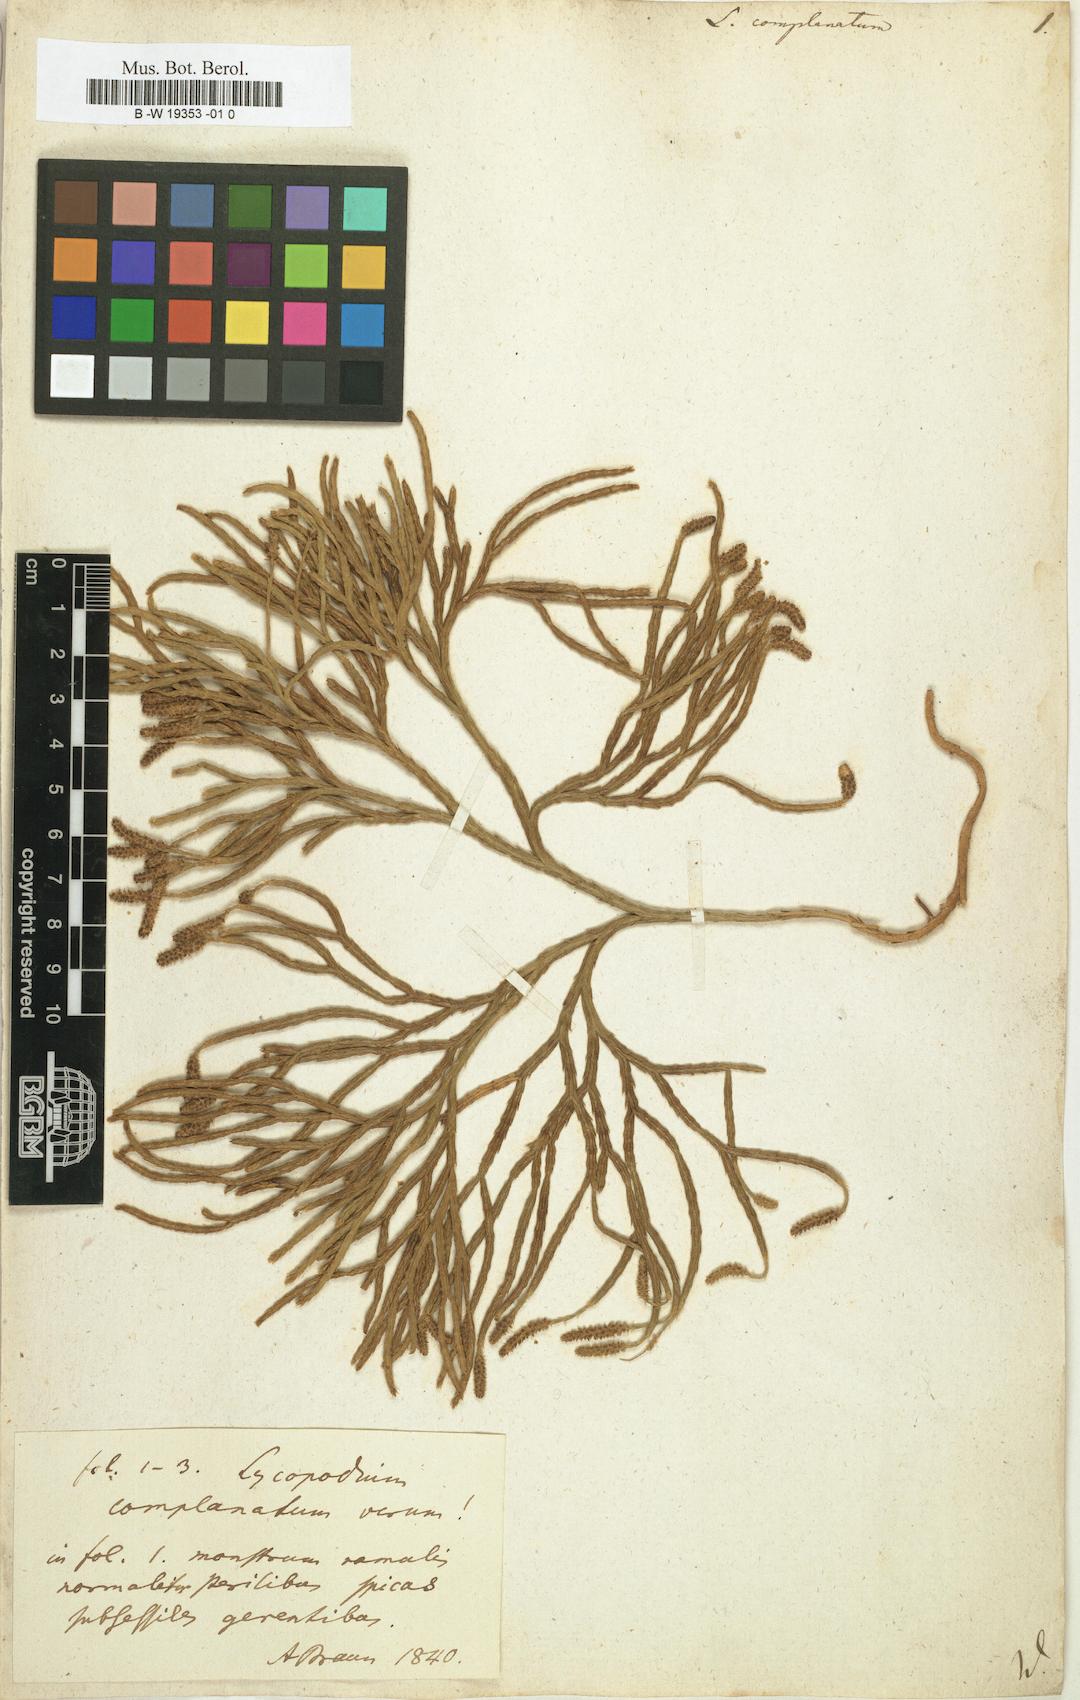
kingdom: Plantae
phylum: Tracheophyta
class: Lycopodiopsida
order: Lycopodiales
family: Lycopodiaceae
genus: Diphasiastrum
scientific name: Diphasiastrum
